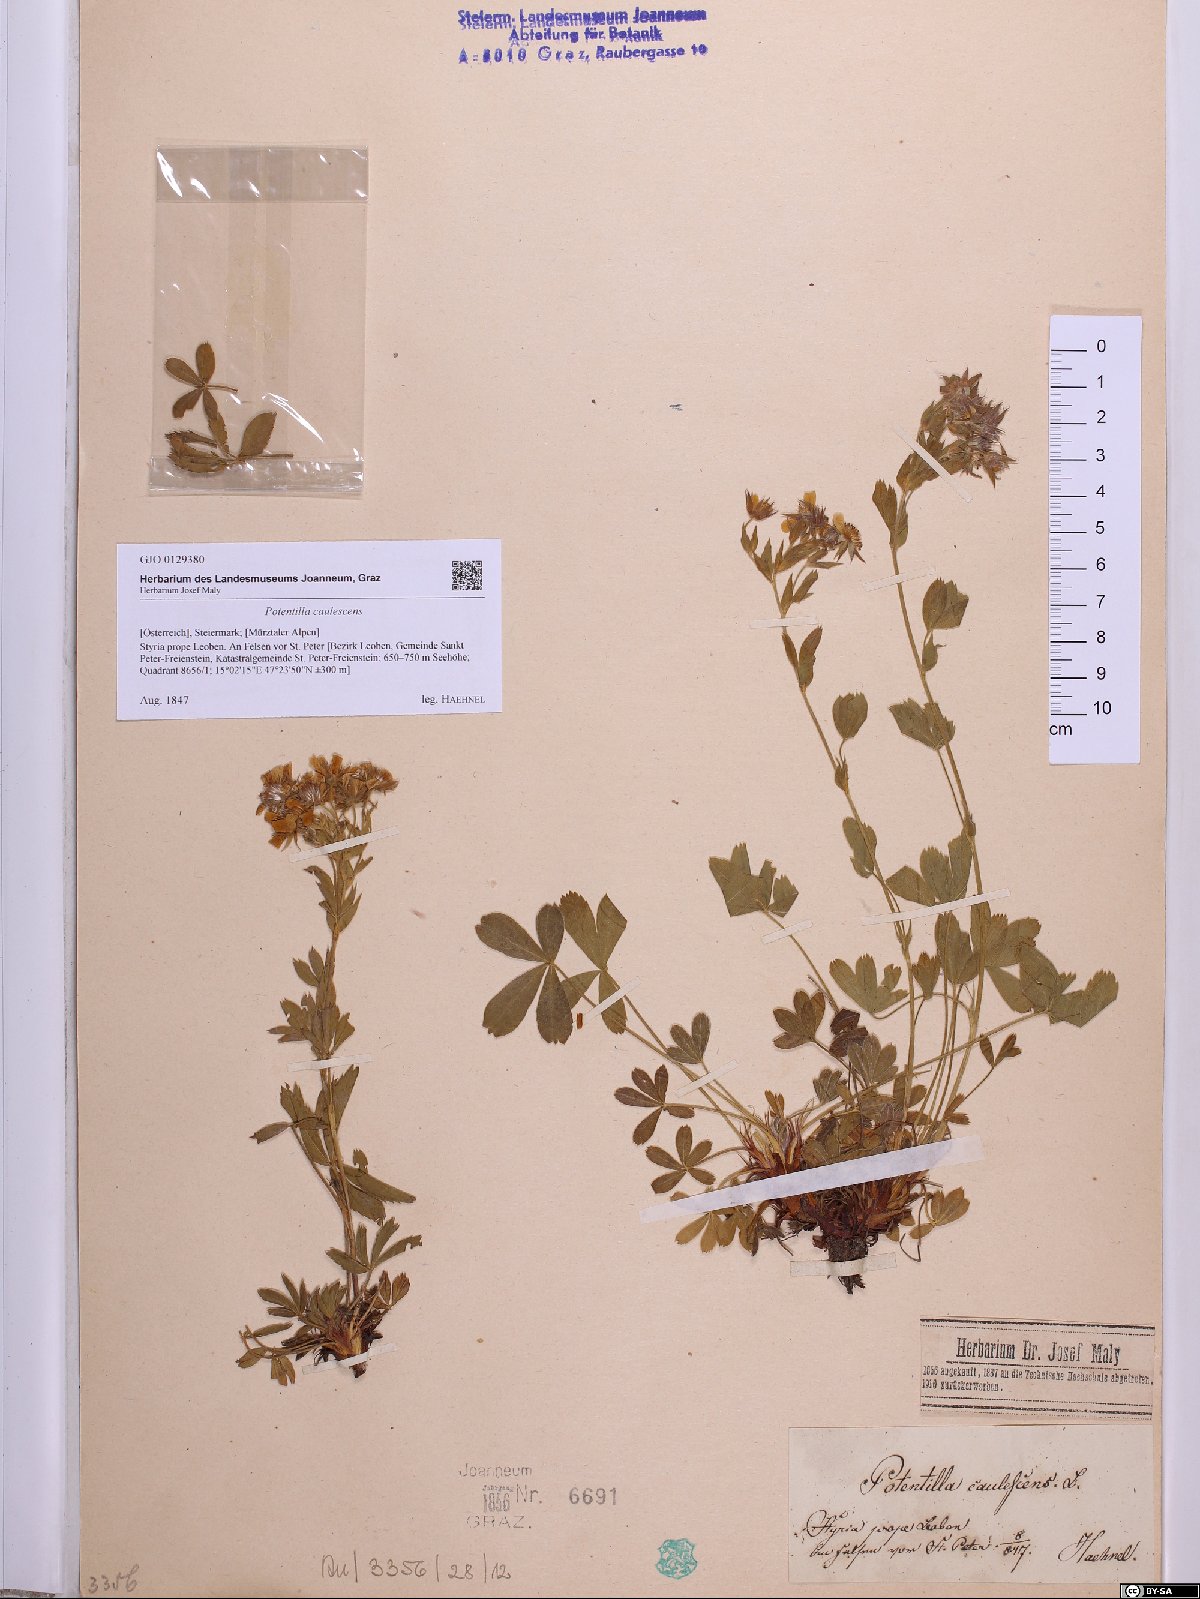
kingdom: Plantae
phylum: Tracheophyta
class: Magnoliopsida
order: Rosales
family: Rosaceae
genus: Potentilla
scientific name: Potentilla caulescens
